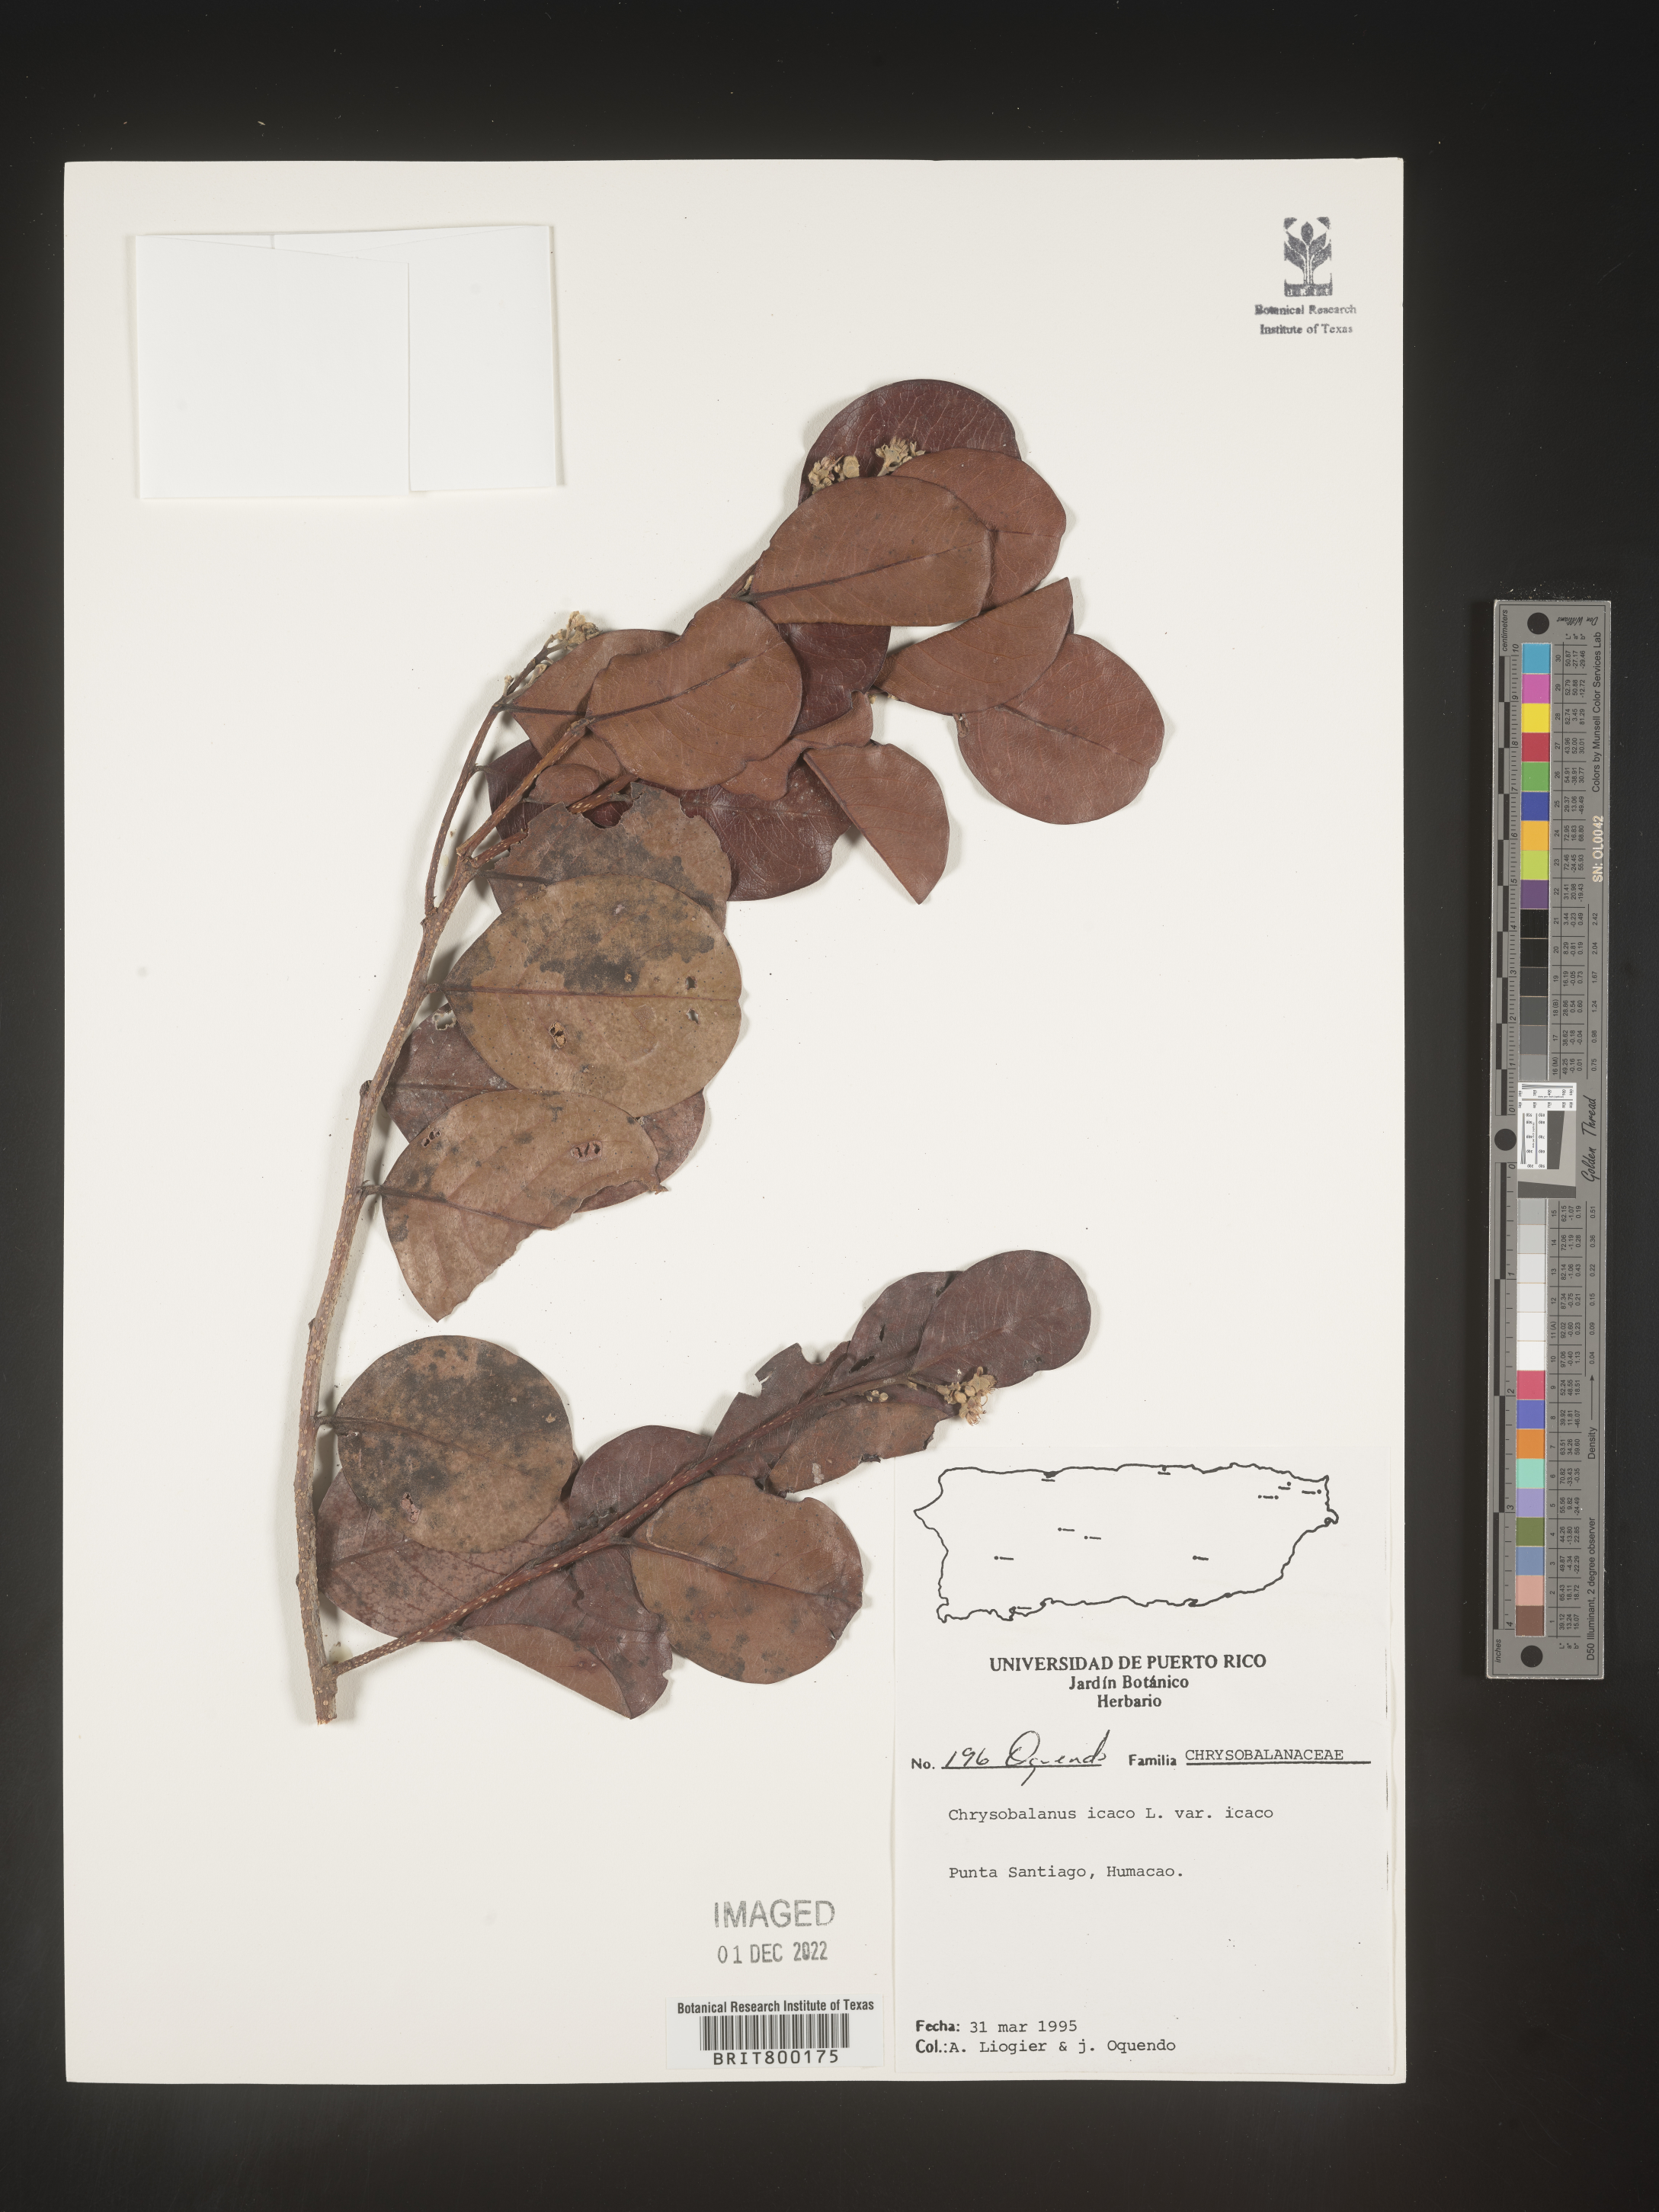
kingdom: Plantae
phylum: Tracheophyta
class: Magnoliopsida
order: Malpighiales
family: Chrysobalanaceae
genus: Chrysobalanus
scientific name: Chrysobalanus
